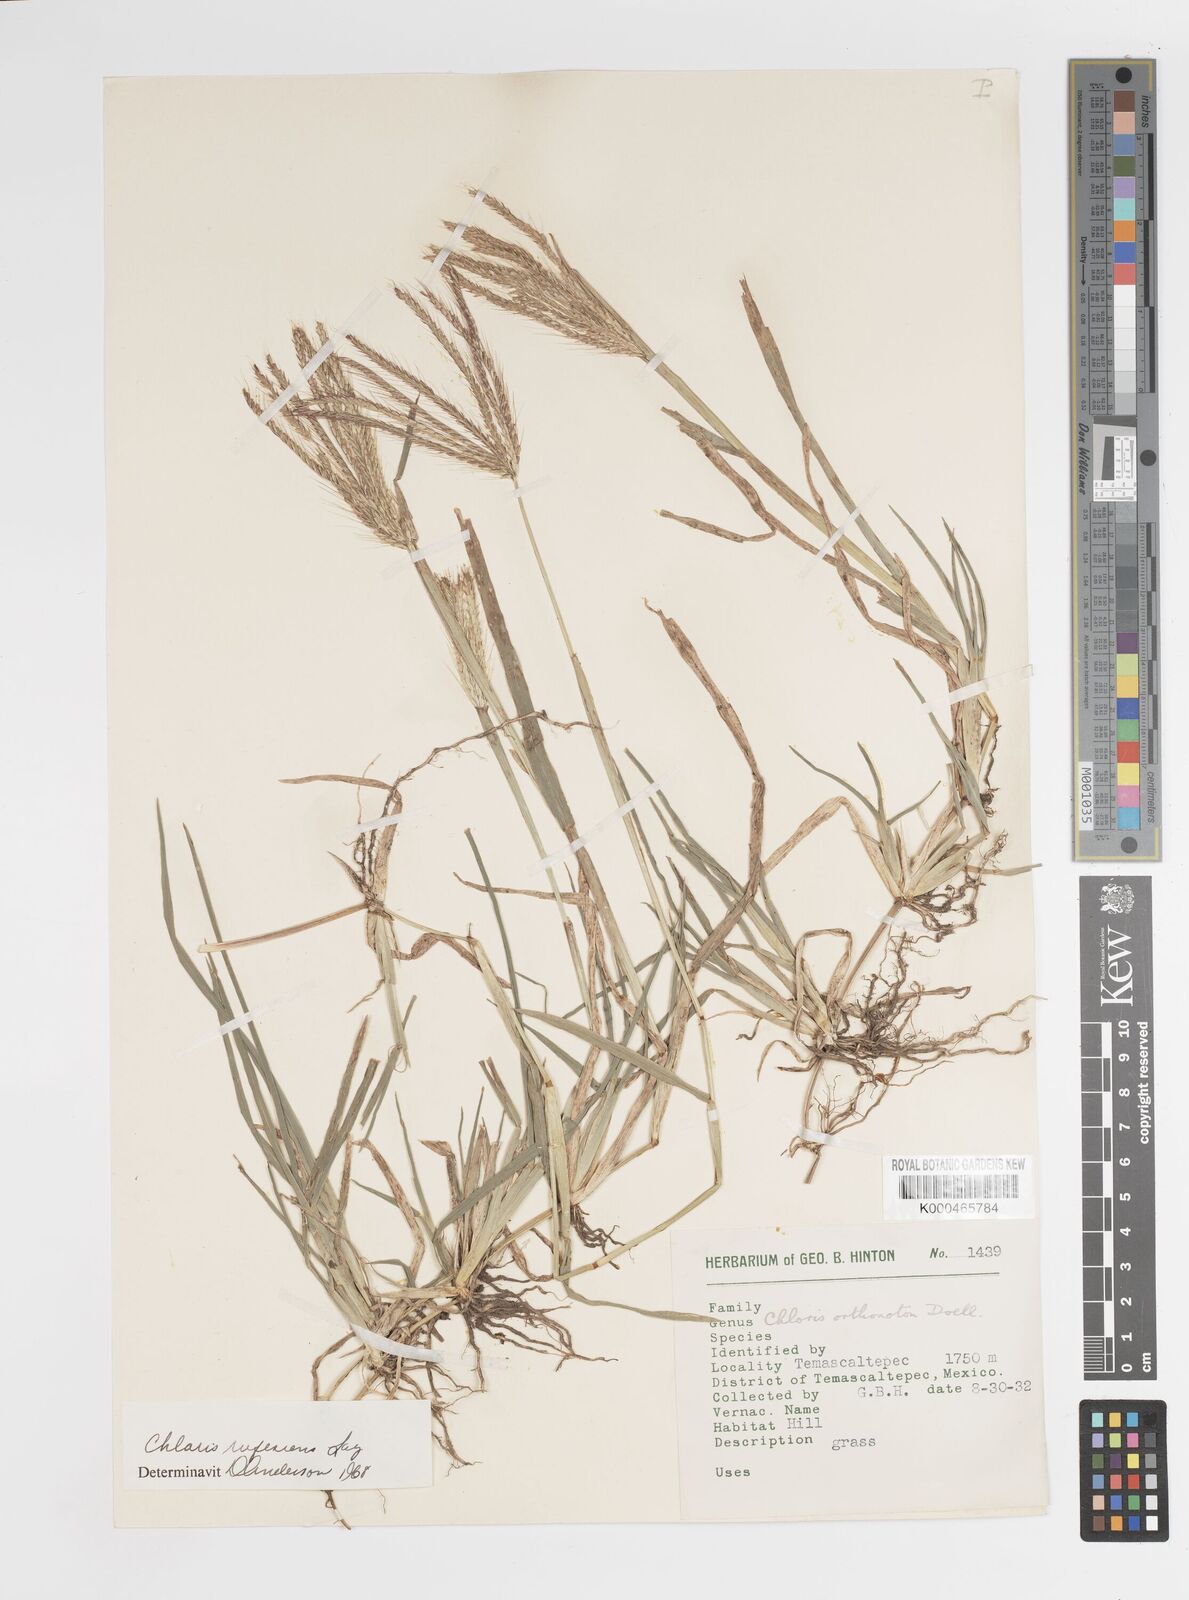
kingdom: Plantae
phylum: Tracheophyta
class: Liliopsida
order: Poales
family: Poaceae
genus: Chloris
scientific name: Chloris rufescens
